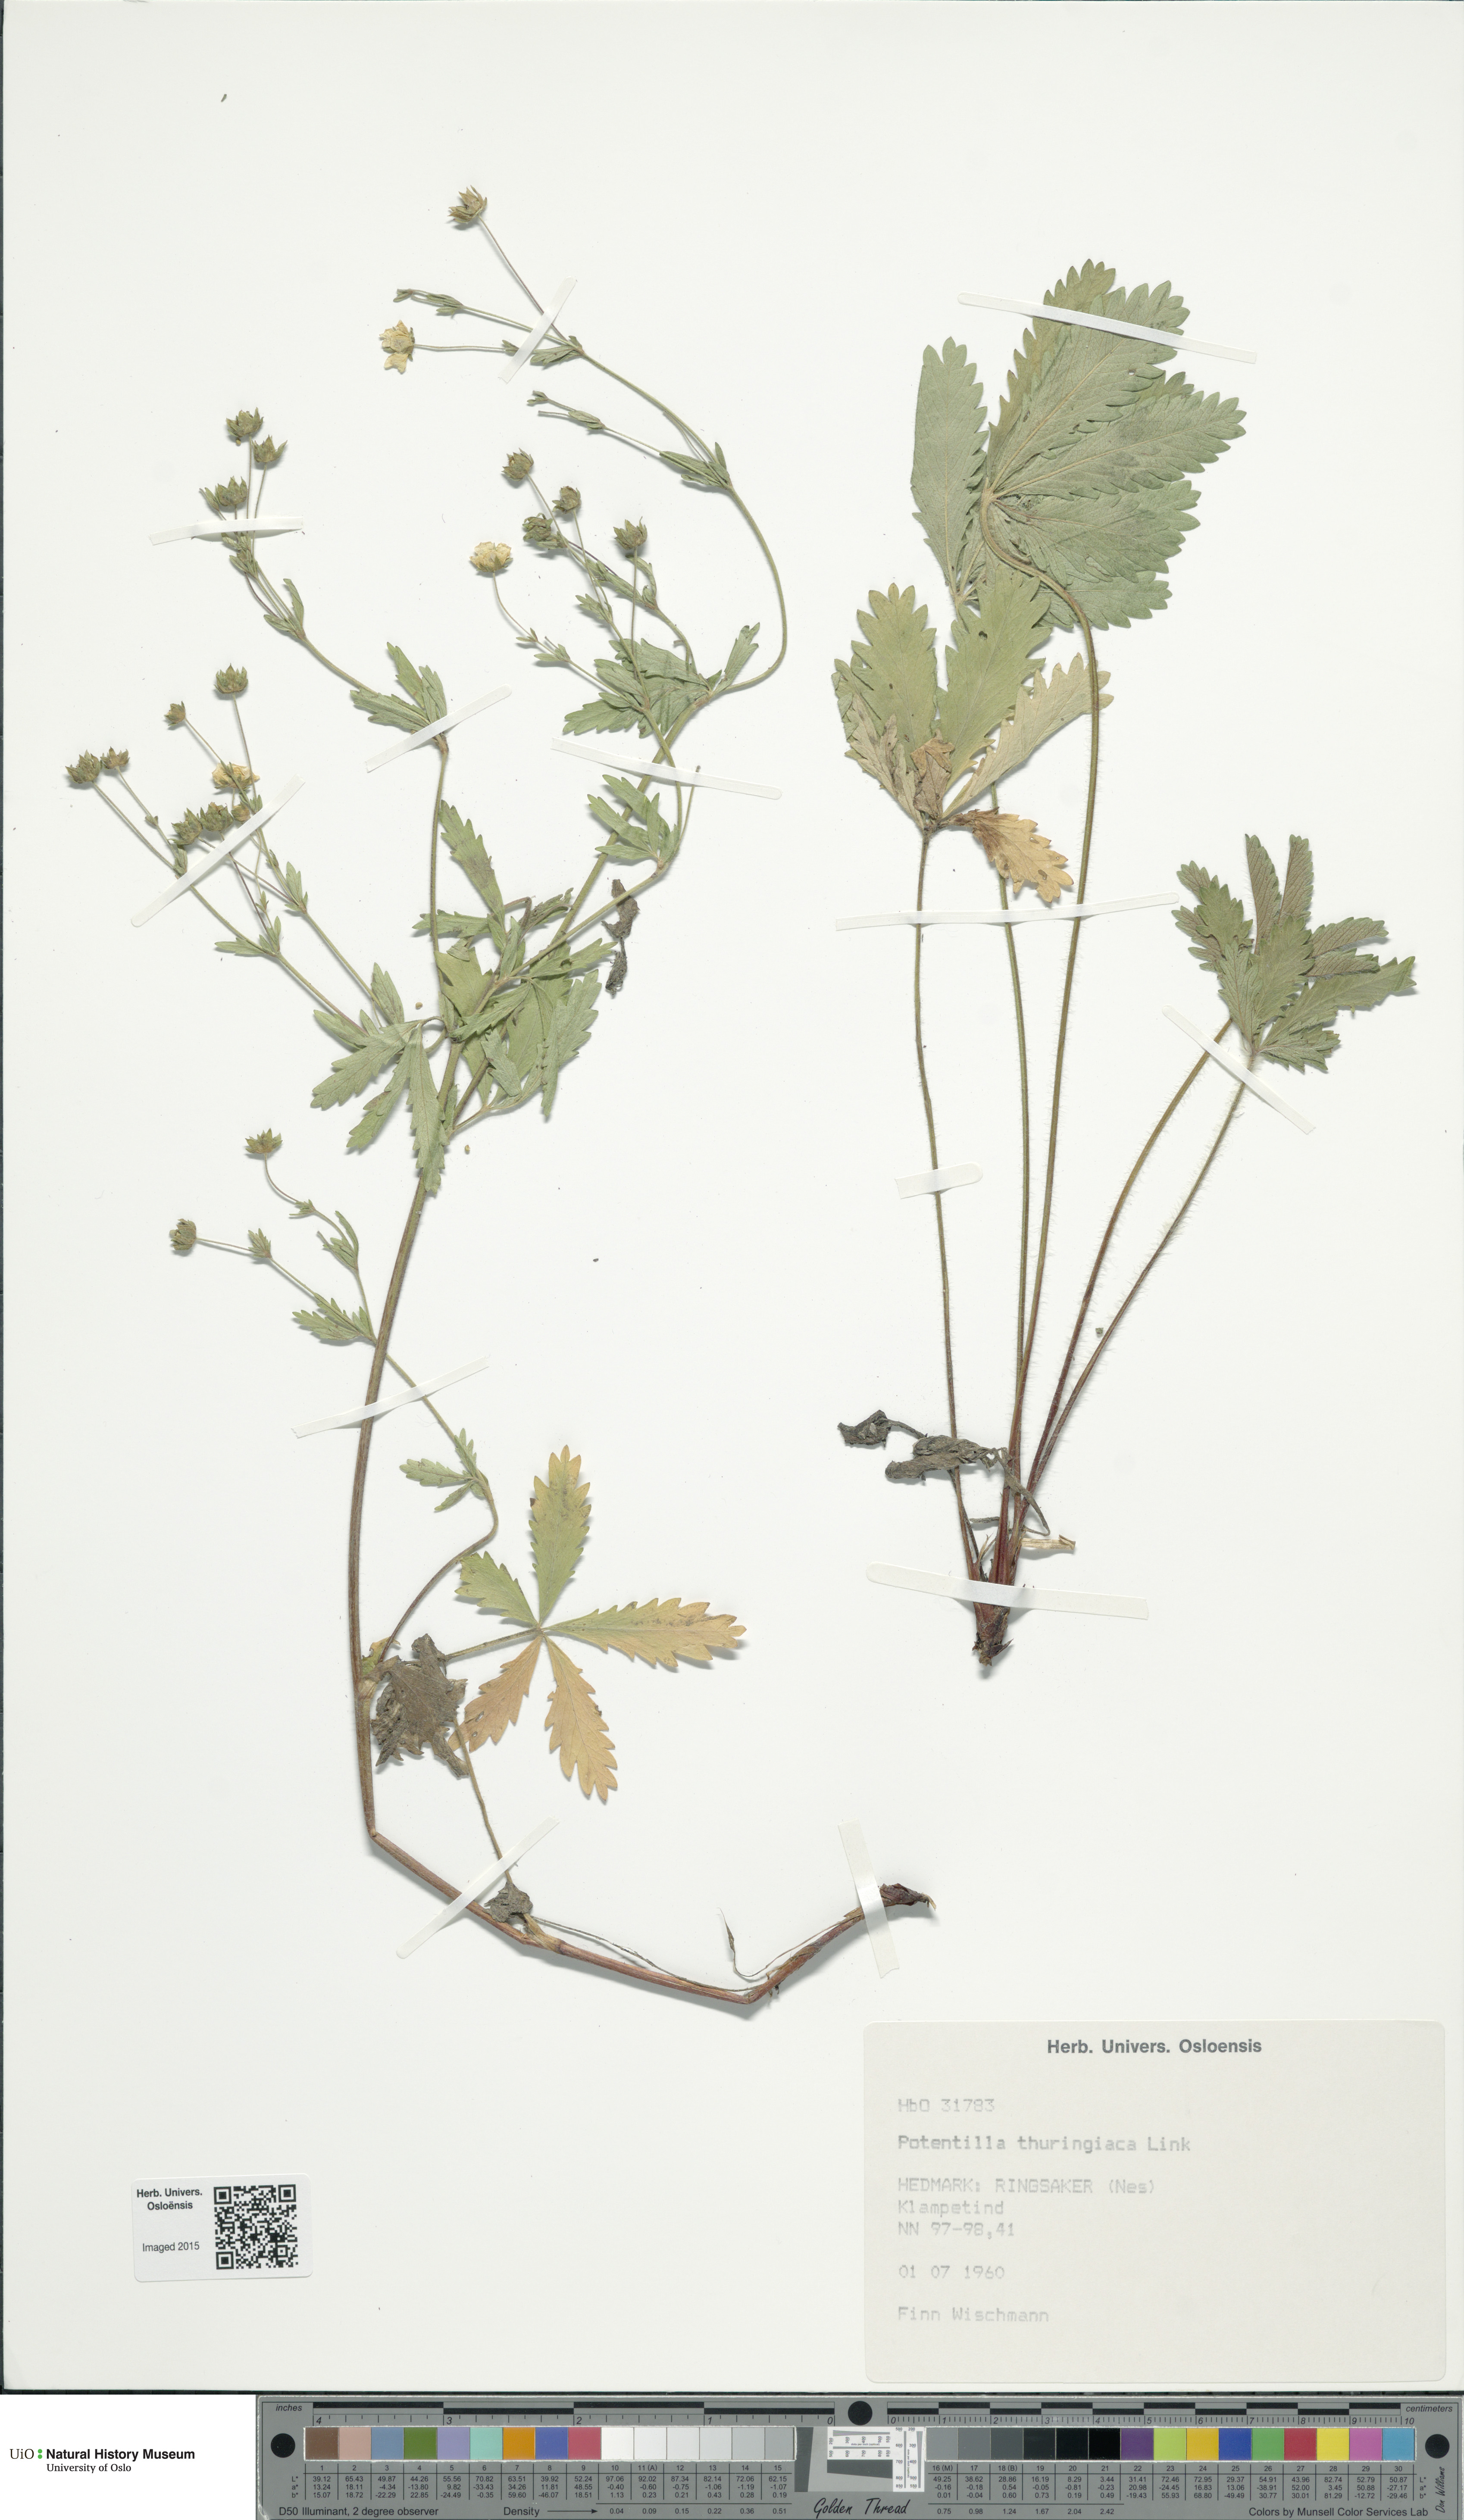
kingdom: Plantae
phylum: Tracheophyta
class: Magnoliopsida
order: Rosales
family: Rosaceae
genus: Potentilla
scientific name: Potentilla thuringiaca
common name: European cinquefoil
